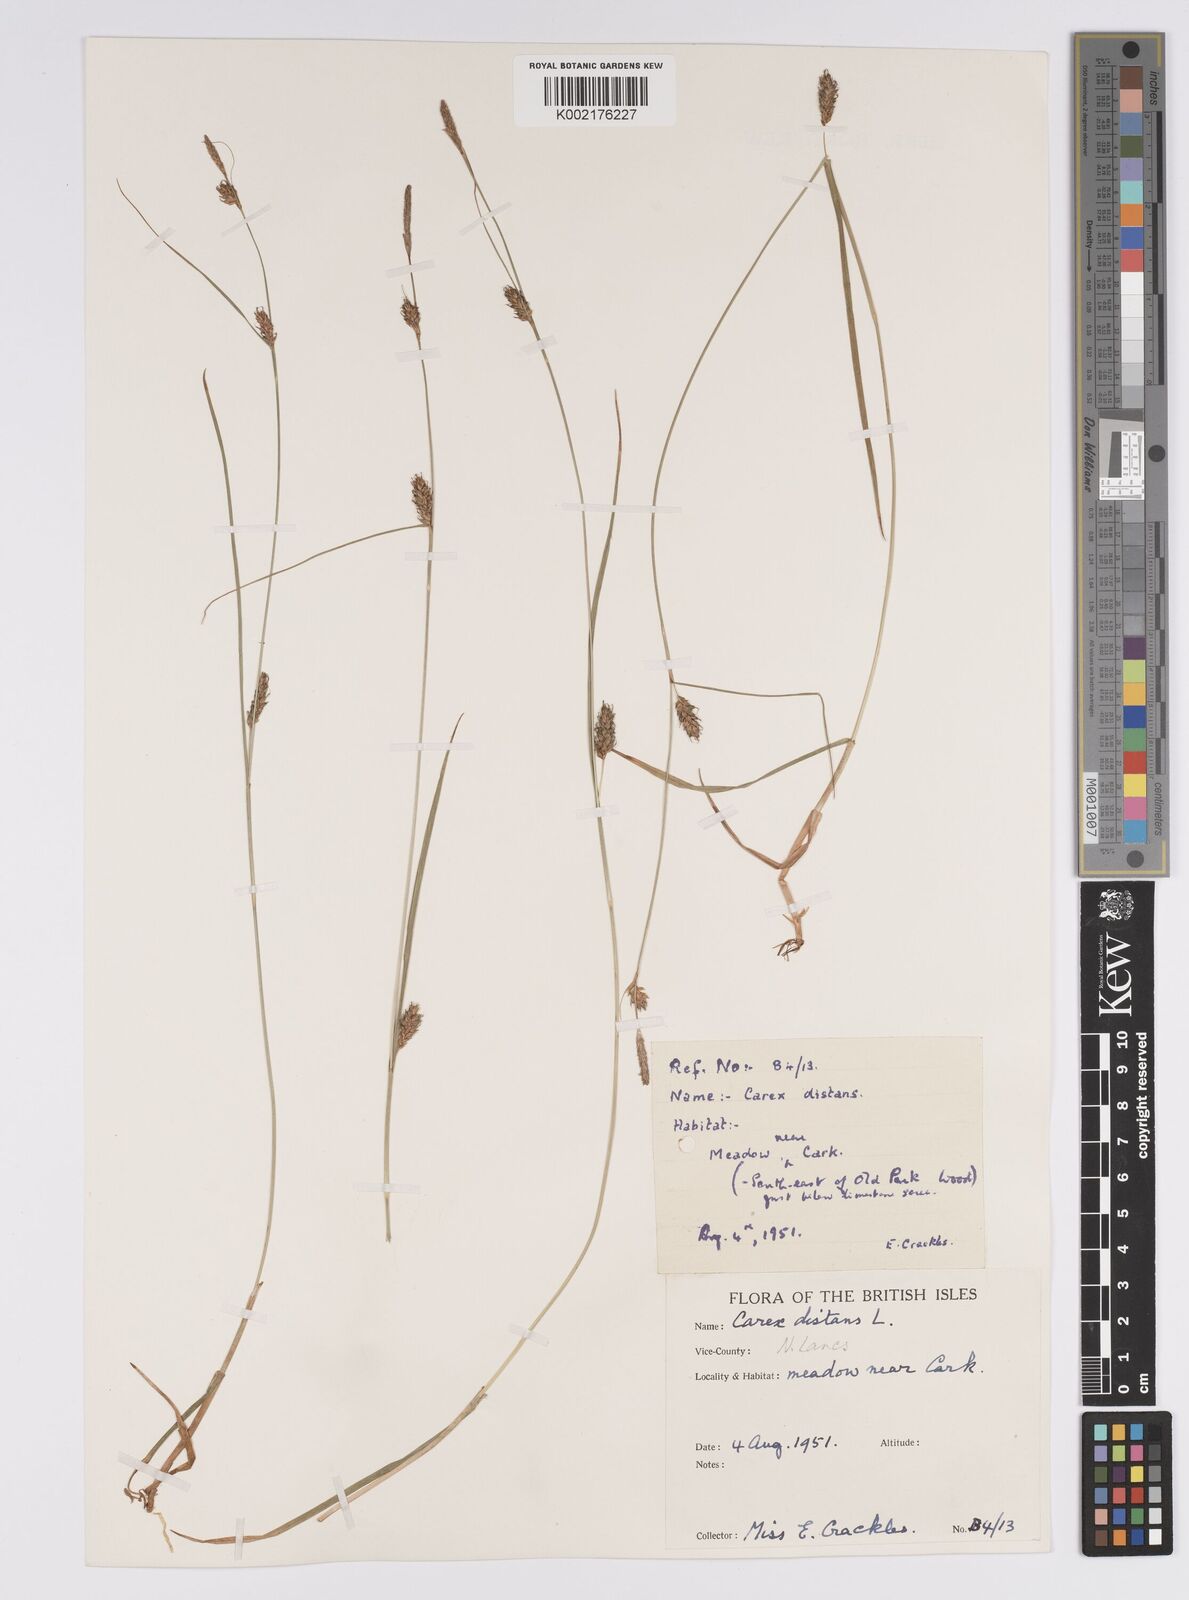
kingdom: Plantae
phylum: Tracheophyta
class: Liliopsida
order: Poales
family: Cyperaceae
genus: Carex
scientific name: Carex distans
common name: Distant sedge
